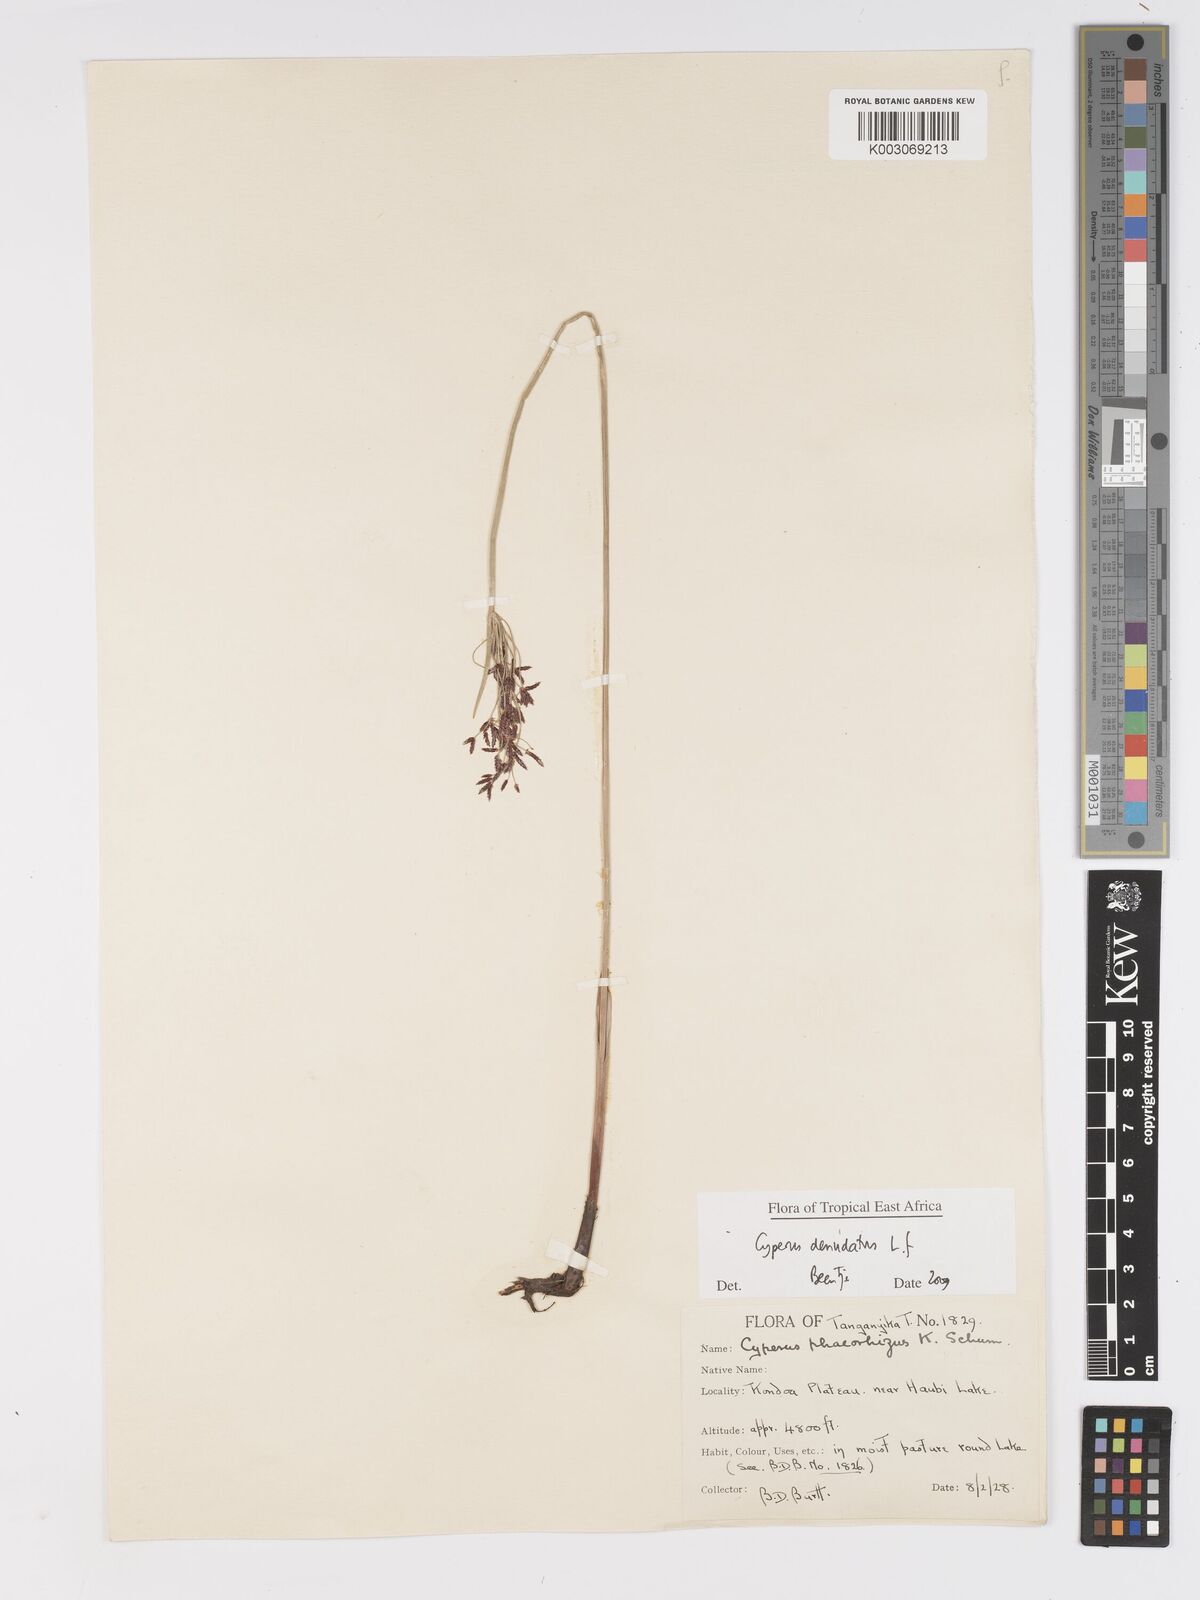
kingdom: Plantae
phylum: Tracheophyta
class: Liliopsida
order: Poales
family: Cyperaceae
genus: Cyperus
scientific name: Cyperus denudatus
